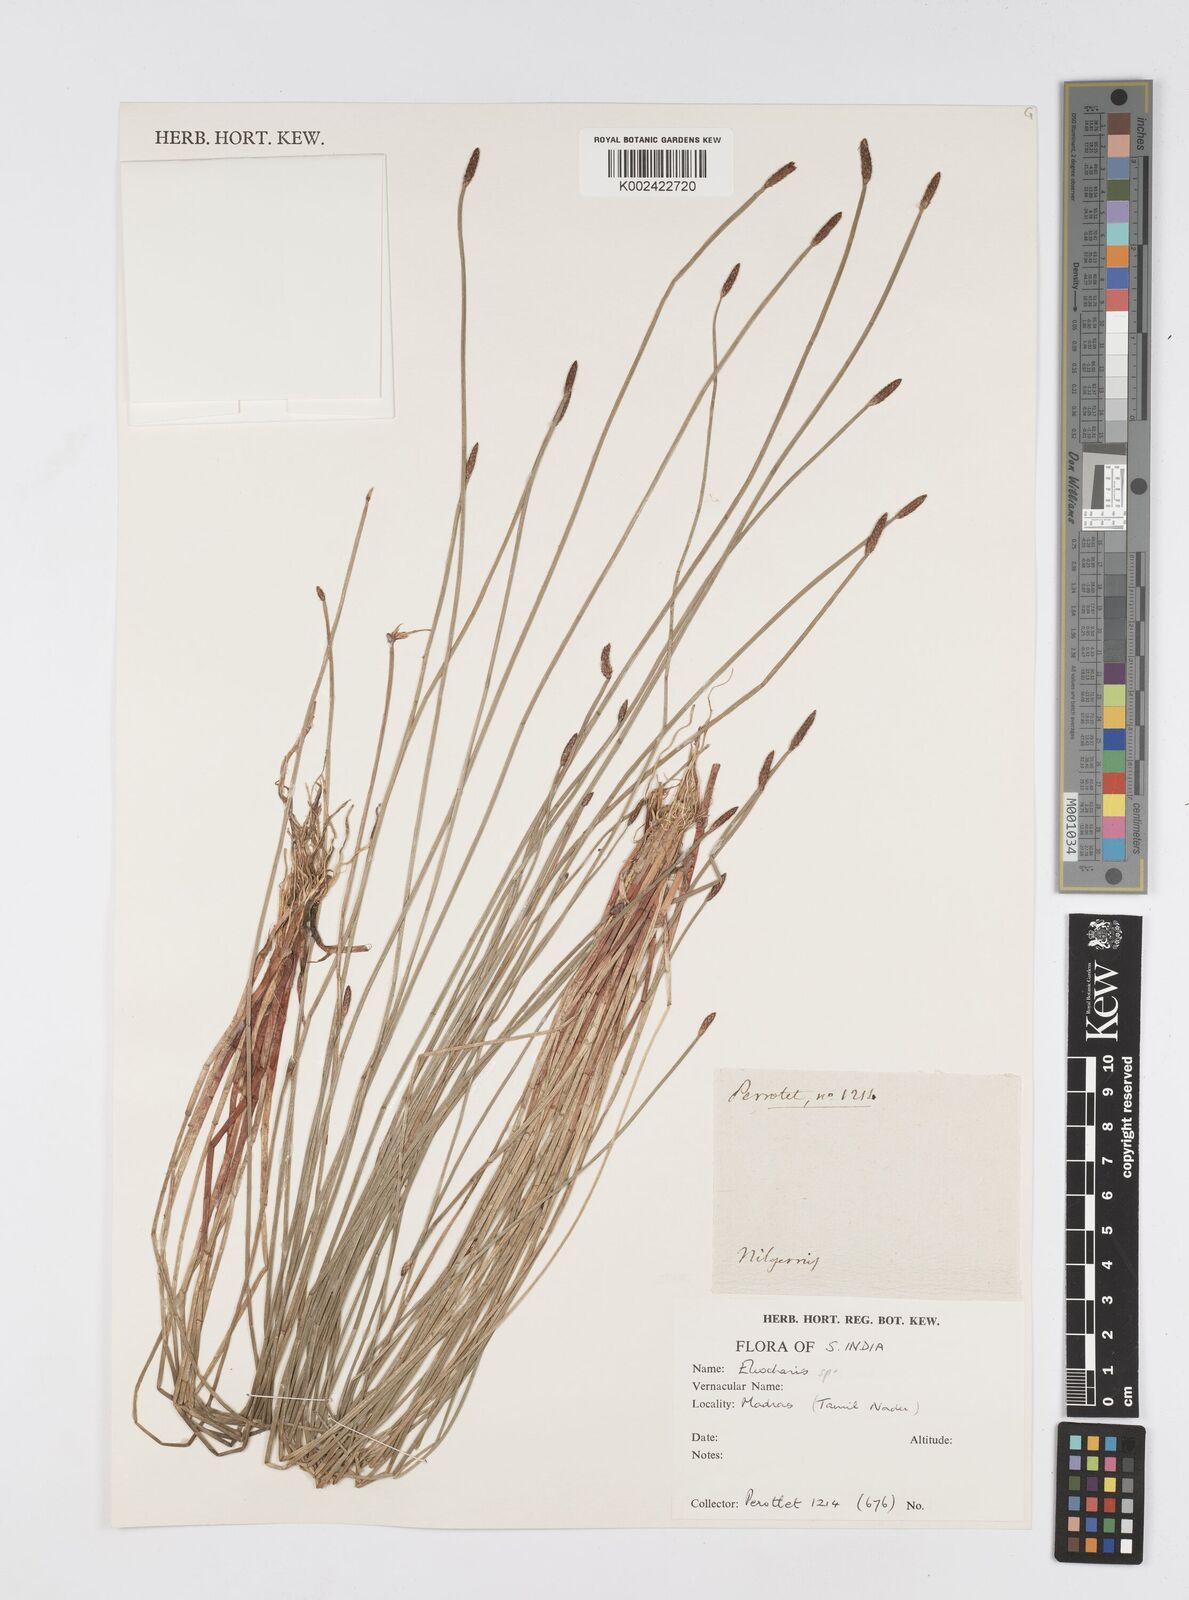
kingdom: Plantae
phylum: Tracheophyta
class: Liliopsida
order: Poales
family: Cyperaceae
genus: Eleocharis
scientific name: Eleocharis
